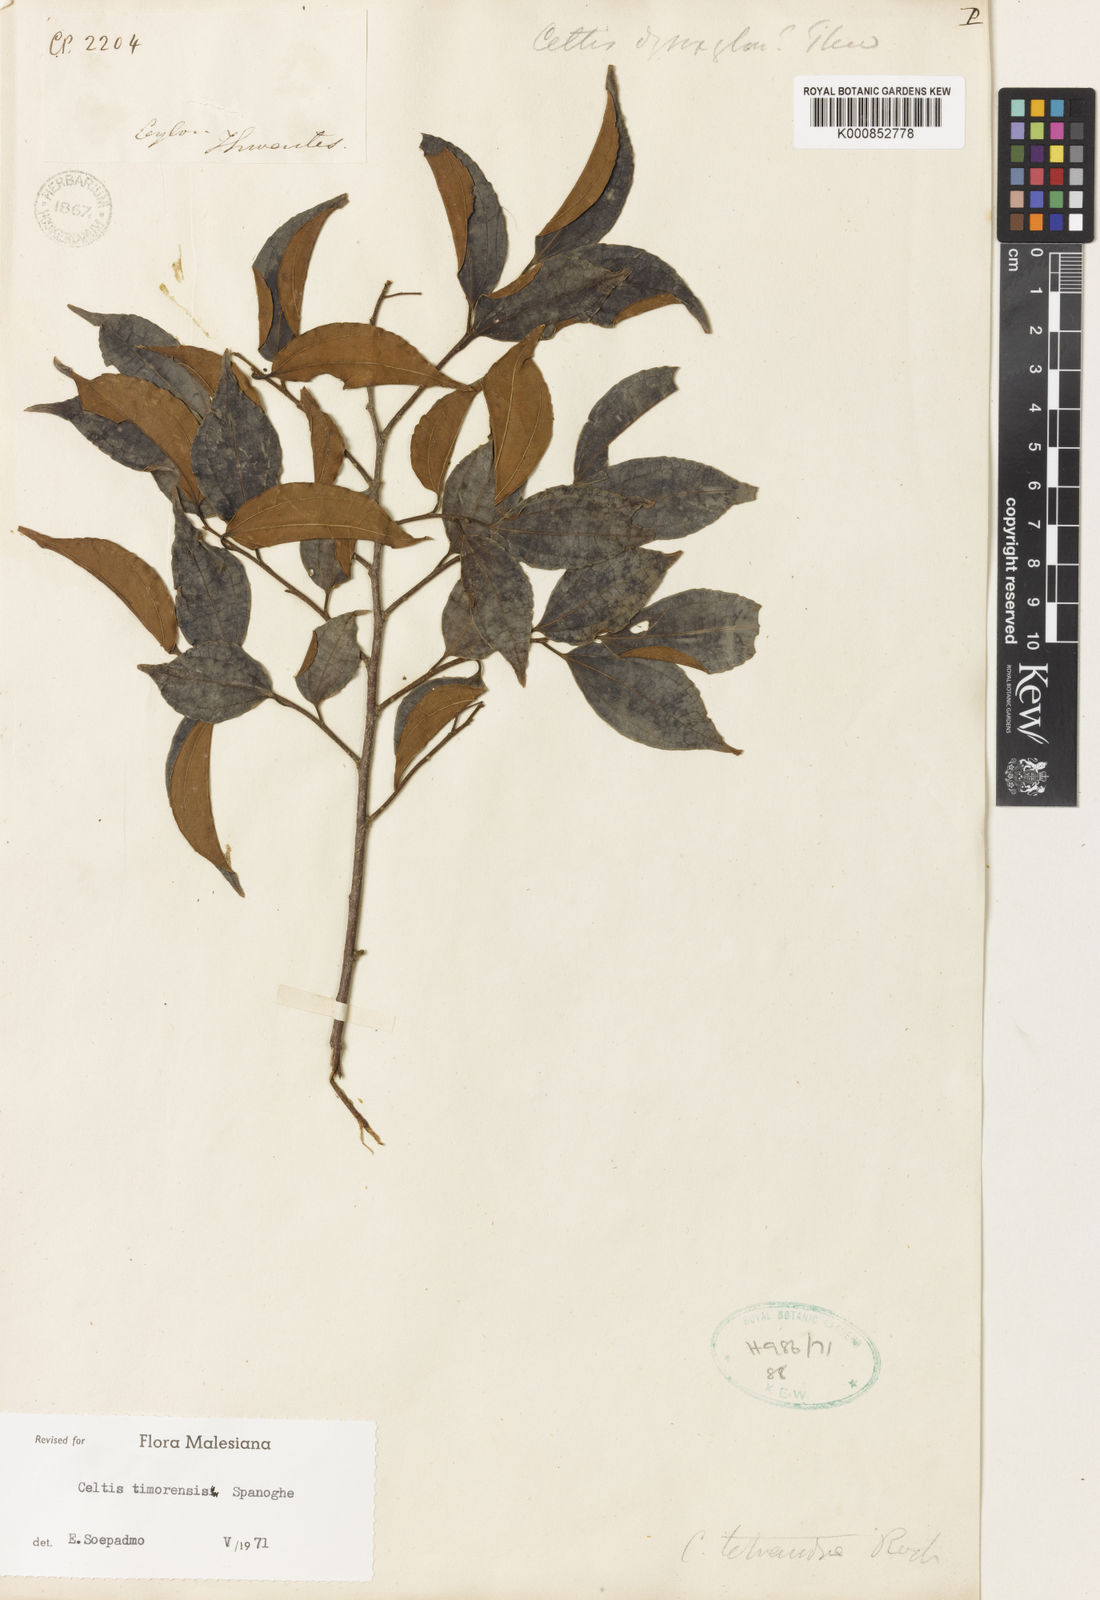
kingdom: Plantae
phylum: Tracheophyta
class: Magnoliopsida
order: Rosales
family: Cannabaceae
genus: Celtis
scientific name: Celtis timorensis
